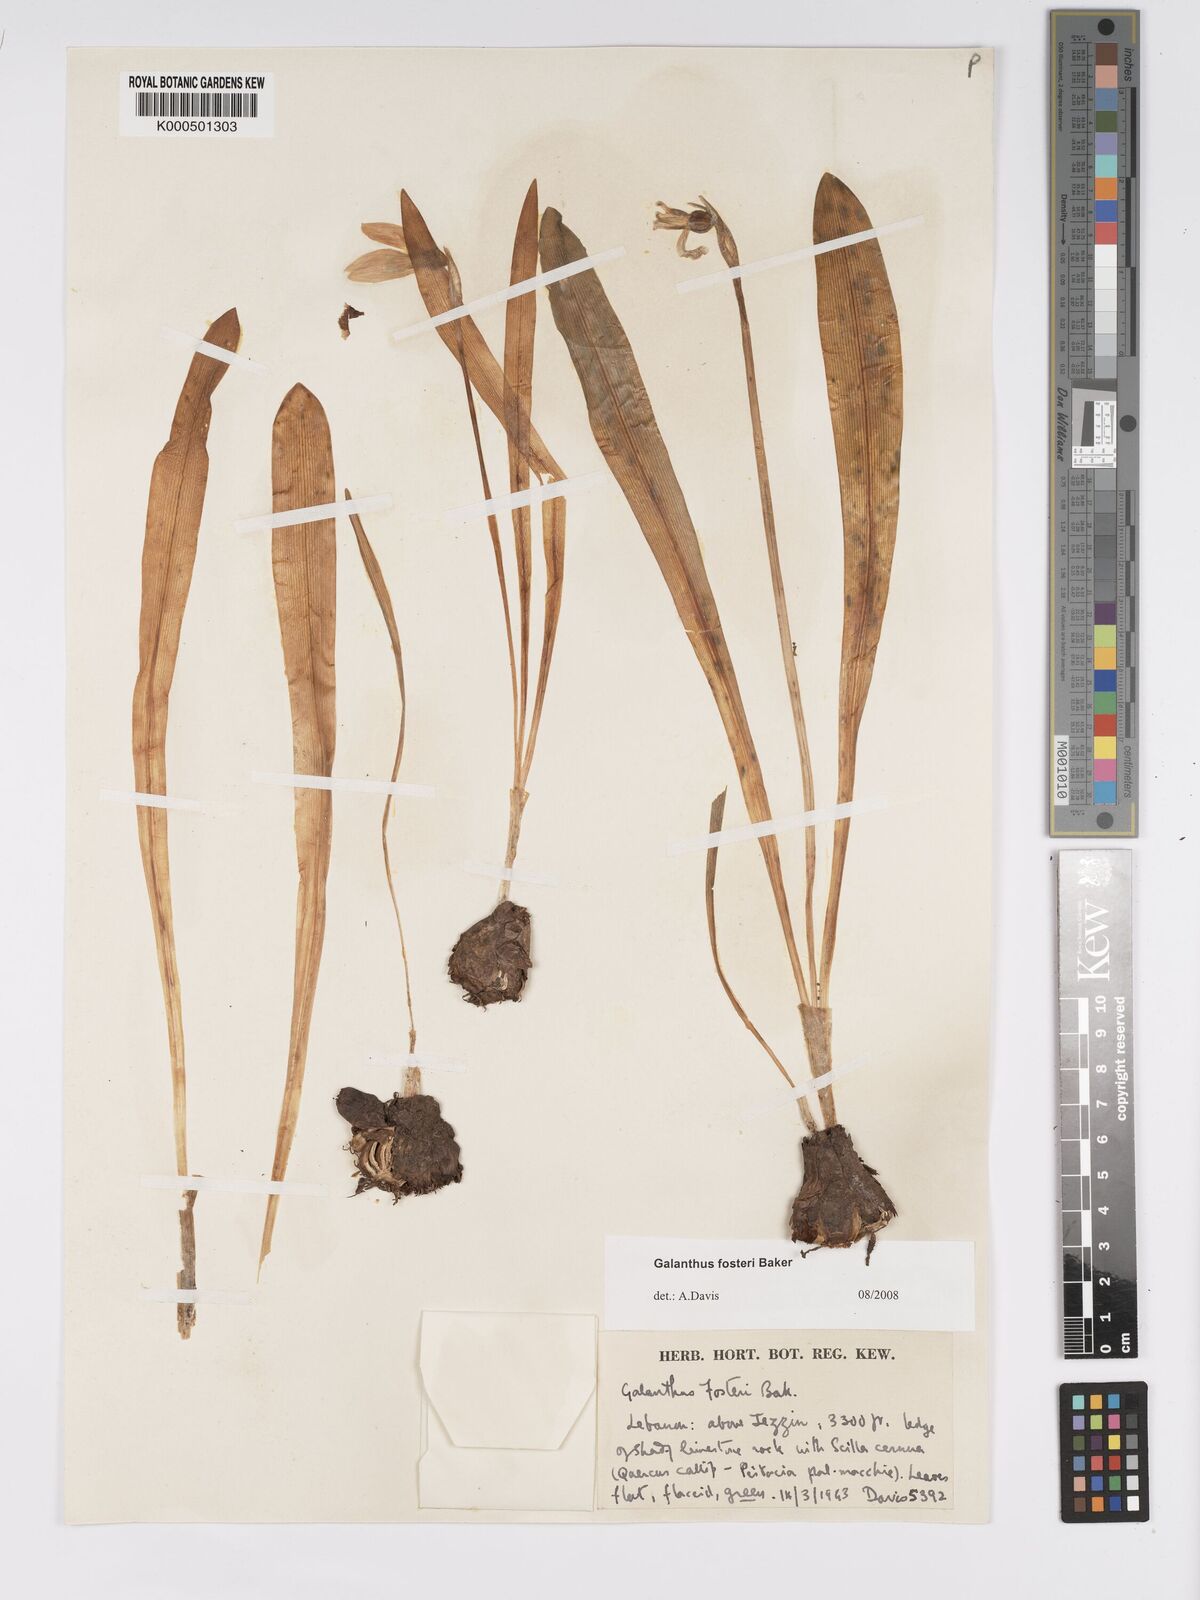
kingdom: Plantae
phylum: Tracheophyta
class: Liliopsida
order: Asparagales
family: Amaryllidaceae
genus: Galanthus
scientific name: Galanthus fosteri
